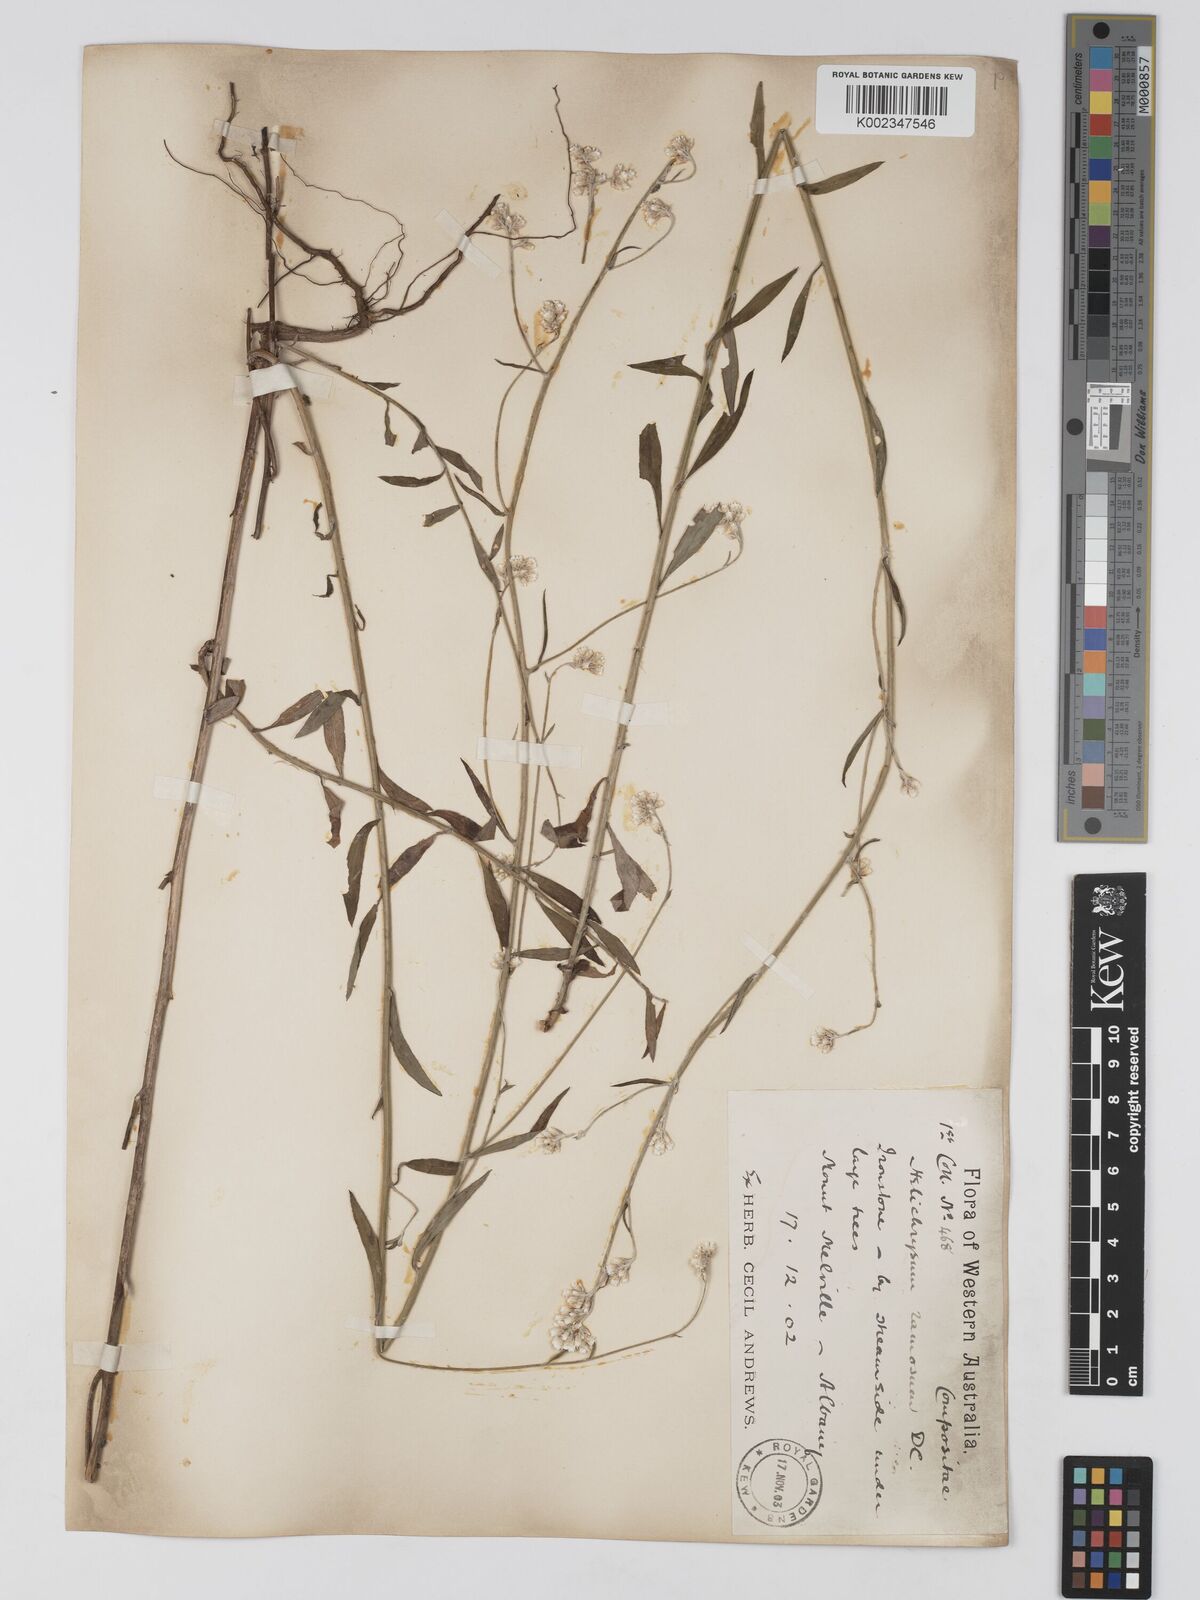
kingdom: Plantae
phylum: Tracheophyta
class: Magnoliopsida
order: Asterales
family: Asteraceae
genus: Pithocarpa
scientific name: Pithocarpa ramosa
